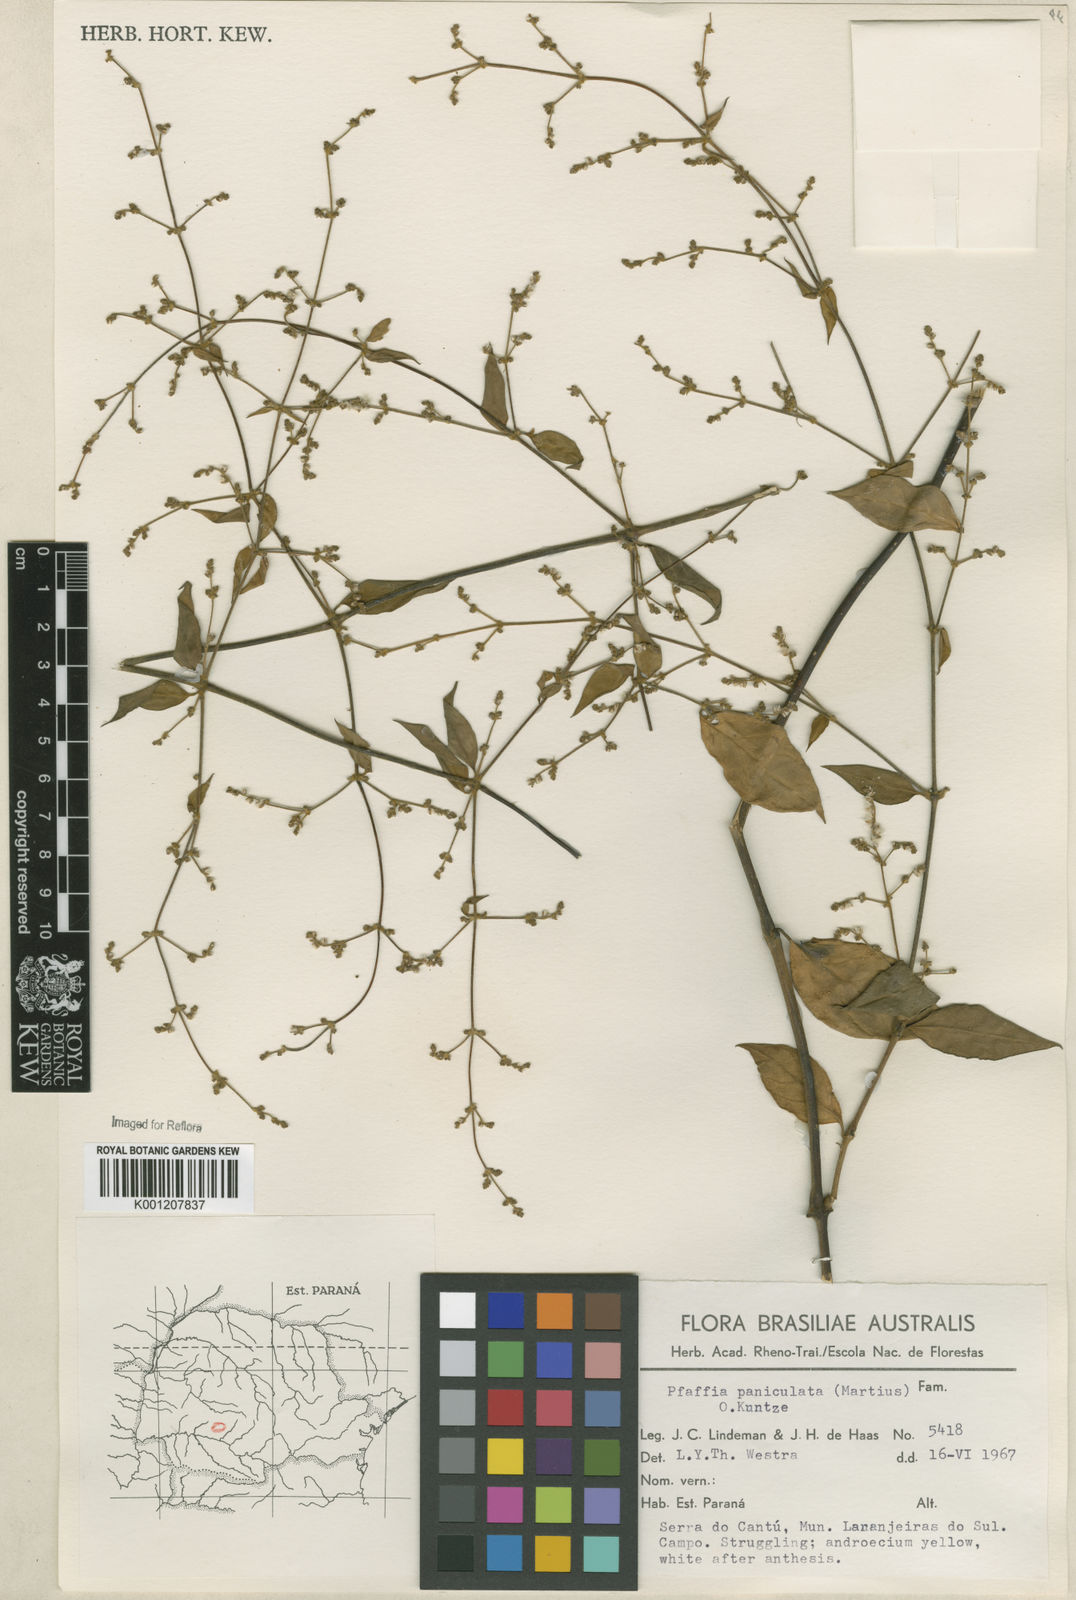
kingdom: Plantae
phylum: Tracheophyta
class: Magnoliopsida
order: Caryophyllales
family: Amaranthaceae
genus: Hebanthe
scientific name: Hebanthe erianthos
